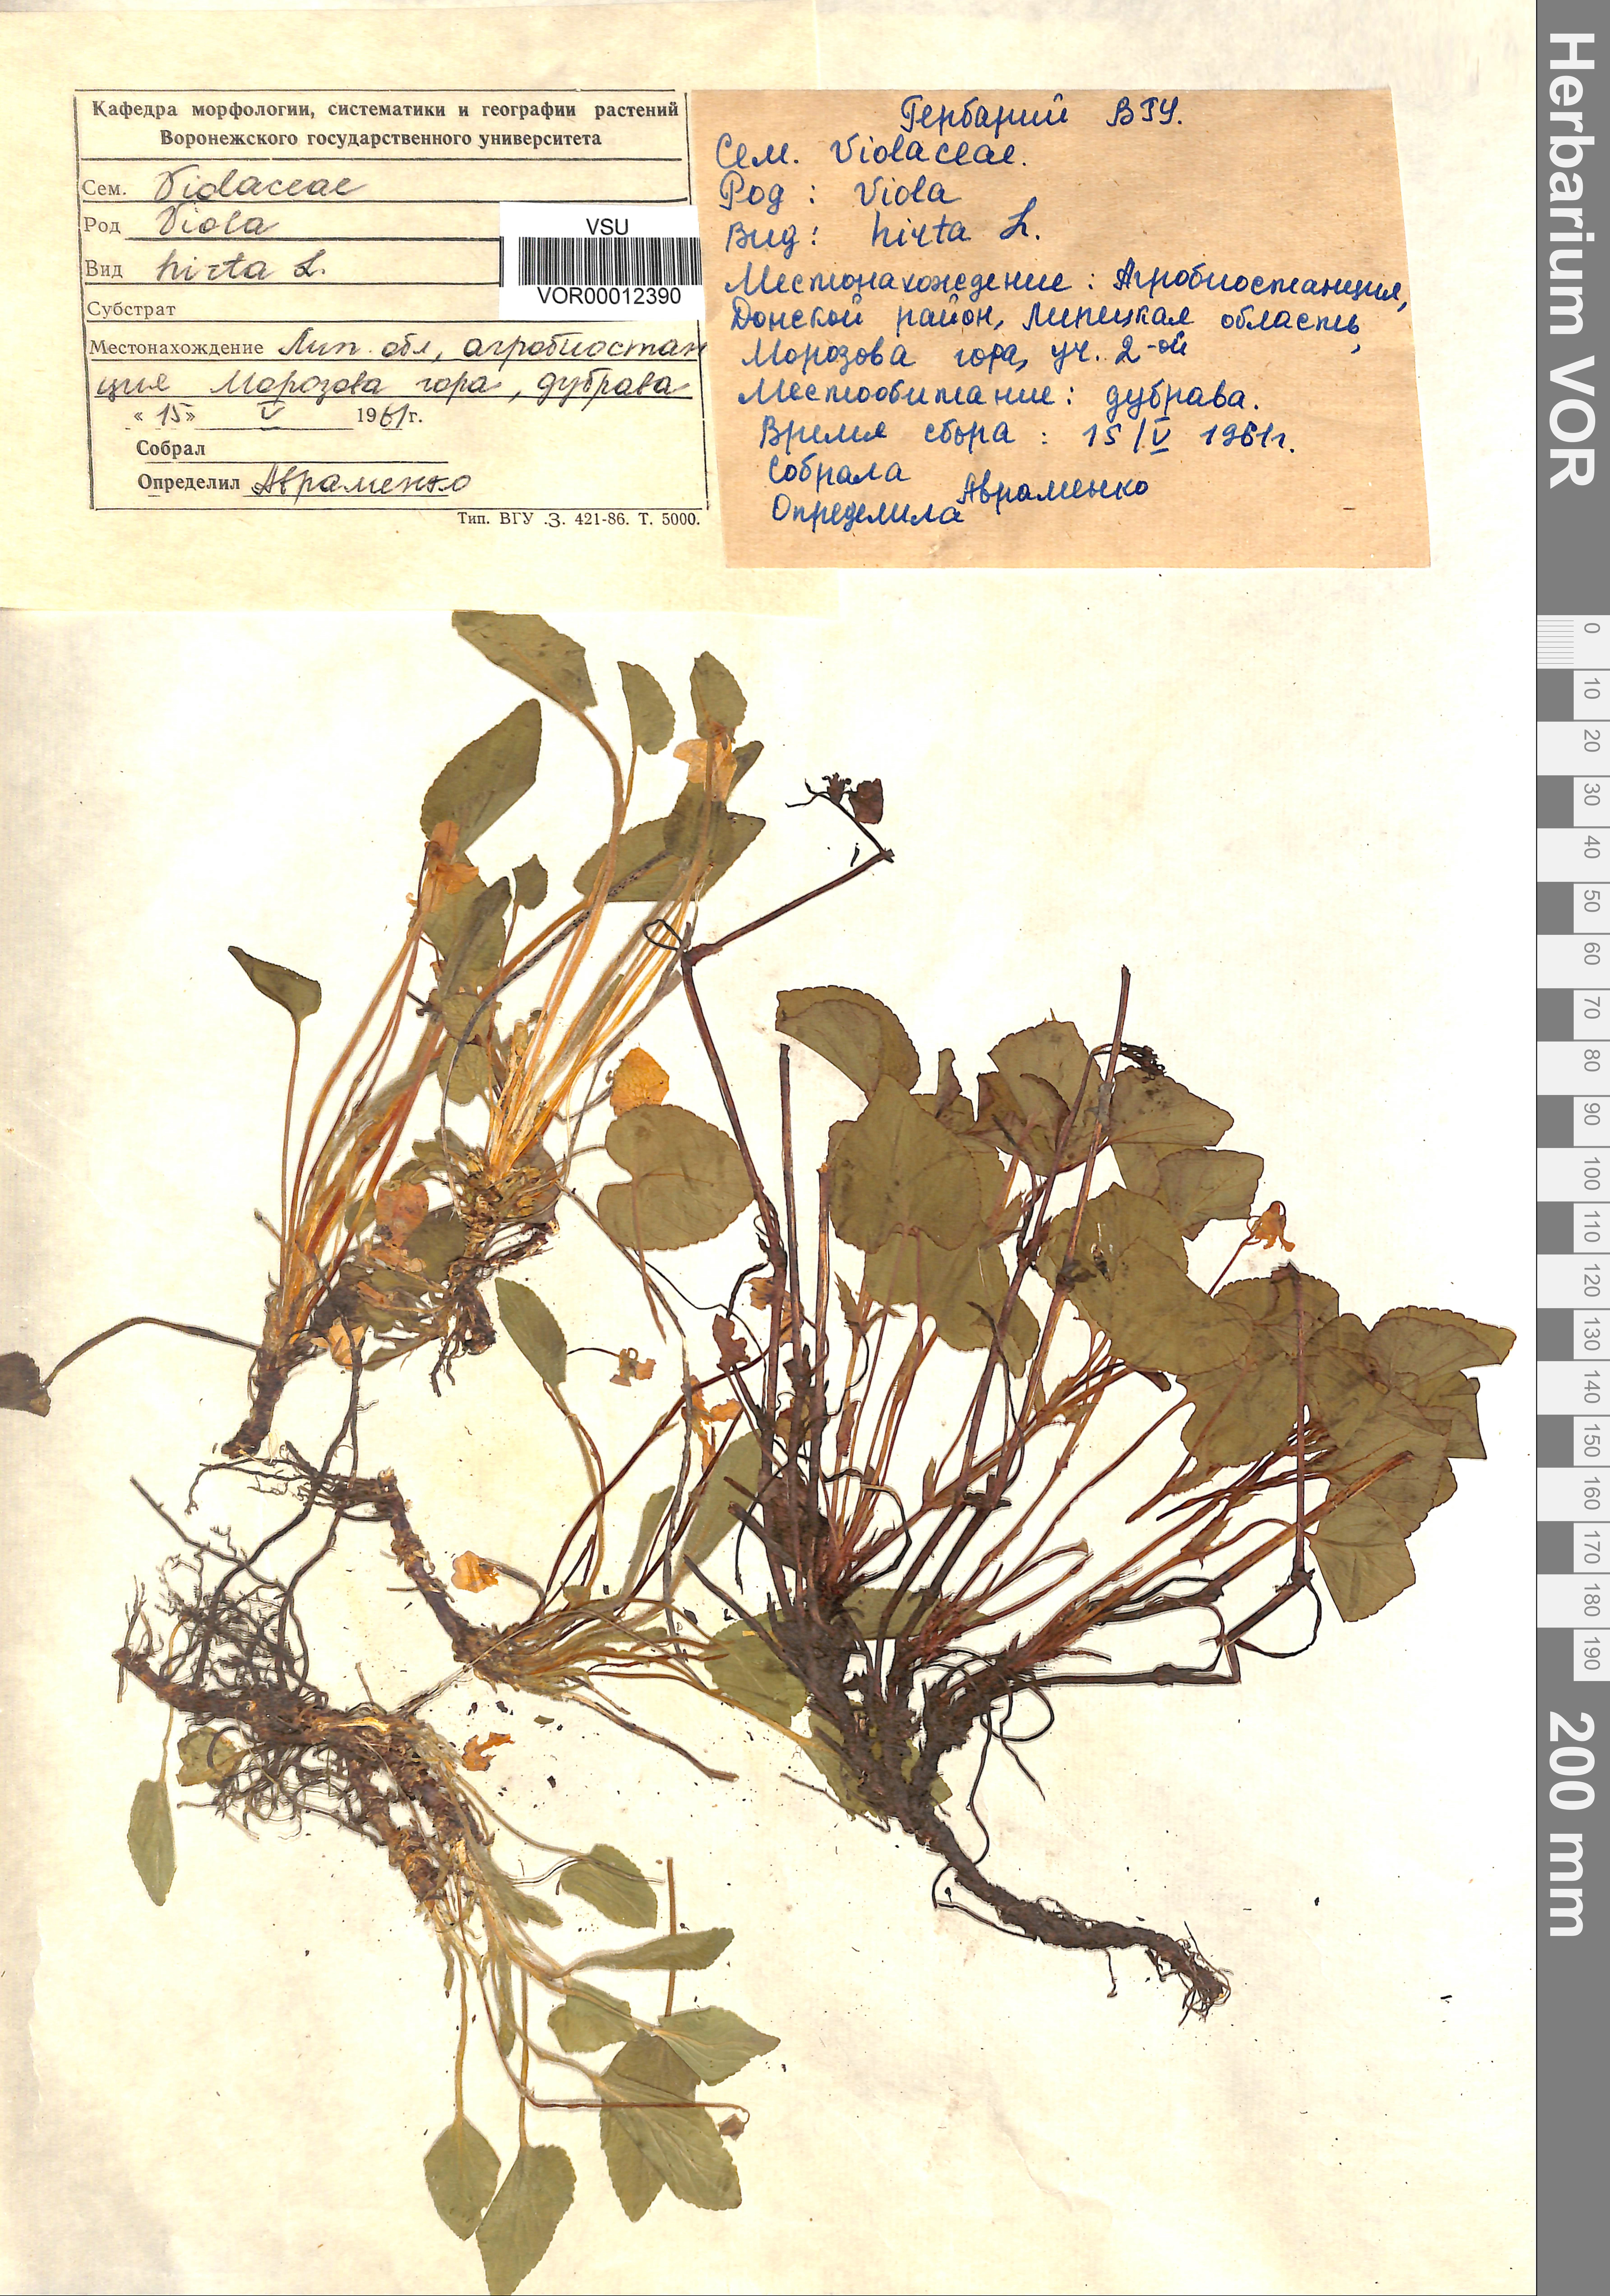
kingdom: Plantae
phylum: Tracheophyta
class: Magnoliopsida
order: Malpighiales
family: Violaceae
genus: Viola
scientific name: Viola hirta
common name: Hairy violet
